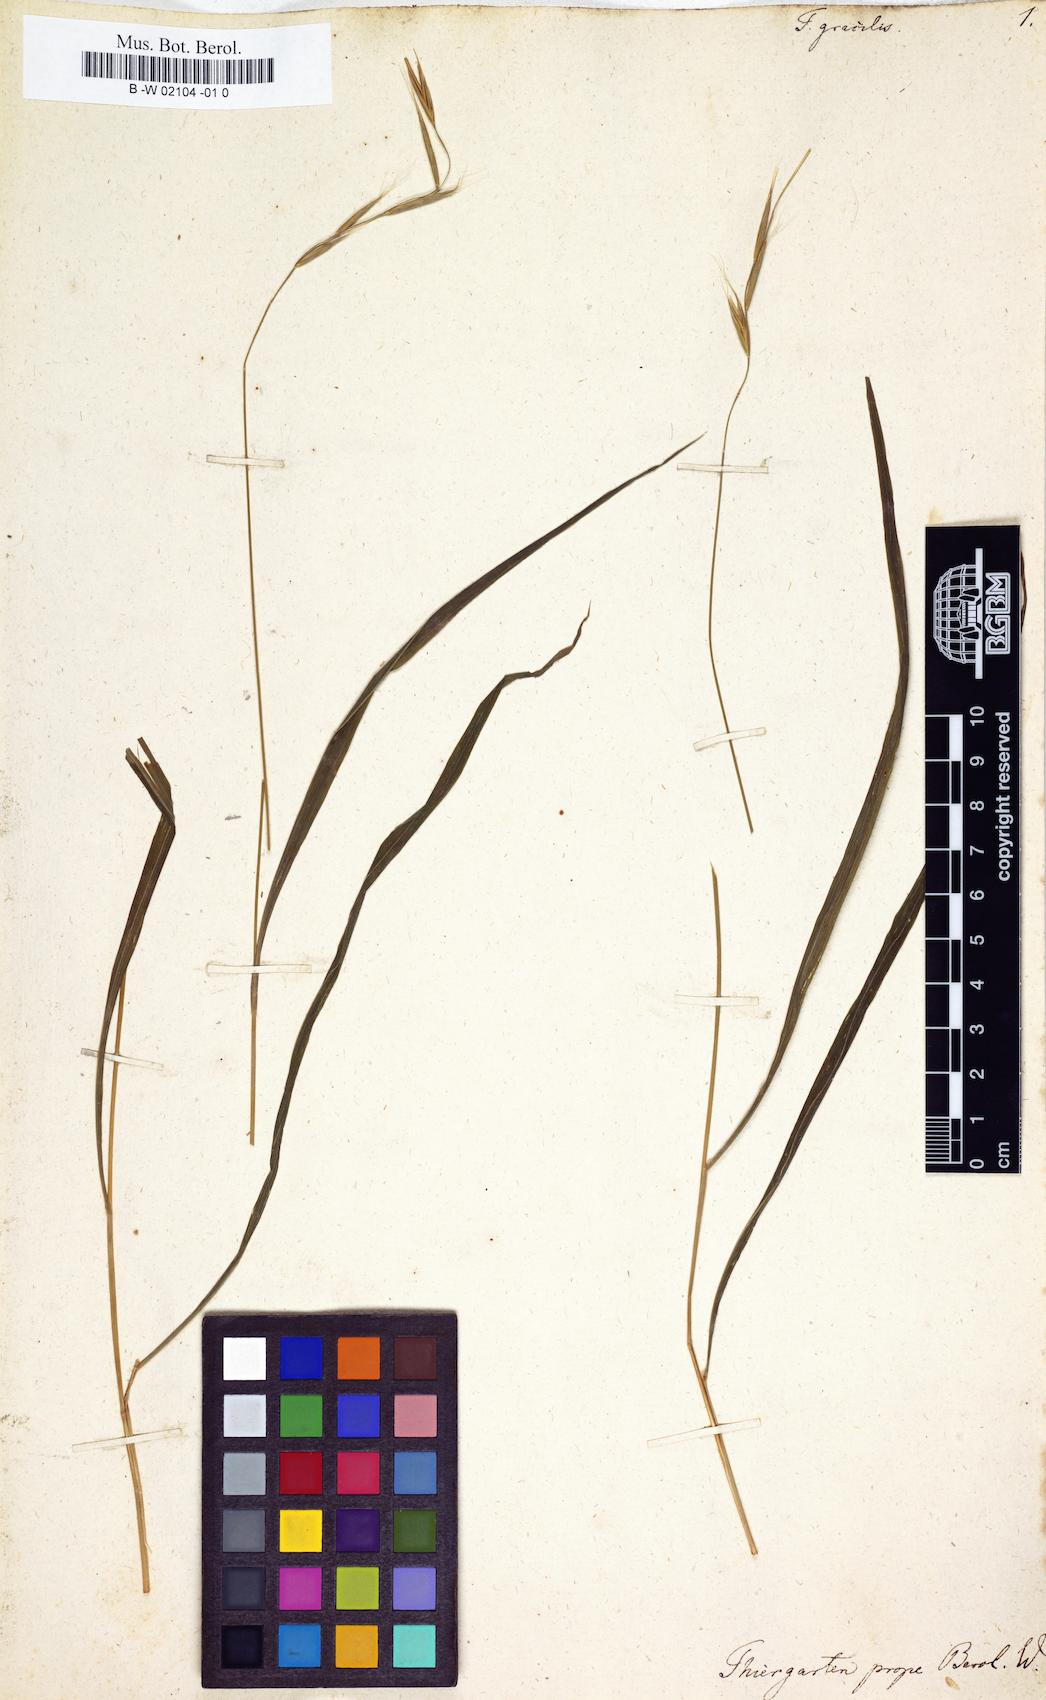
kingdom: Plantae
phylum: Tracheophyta
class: Liliopsida
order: Poales
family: Poaceae
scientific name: Poaceae
